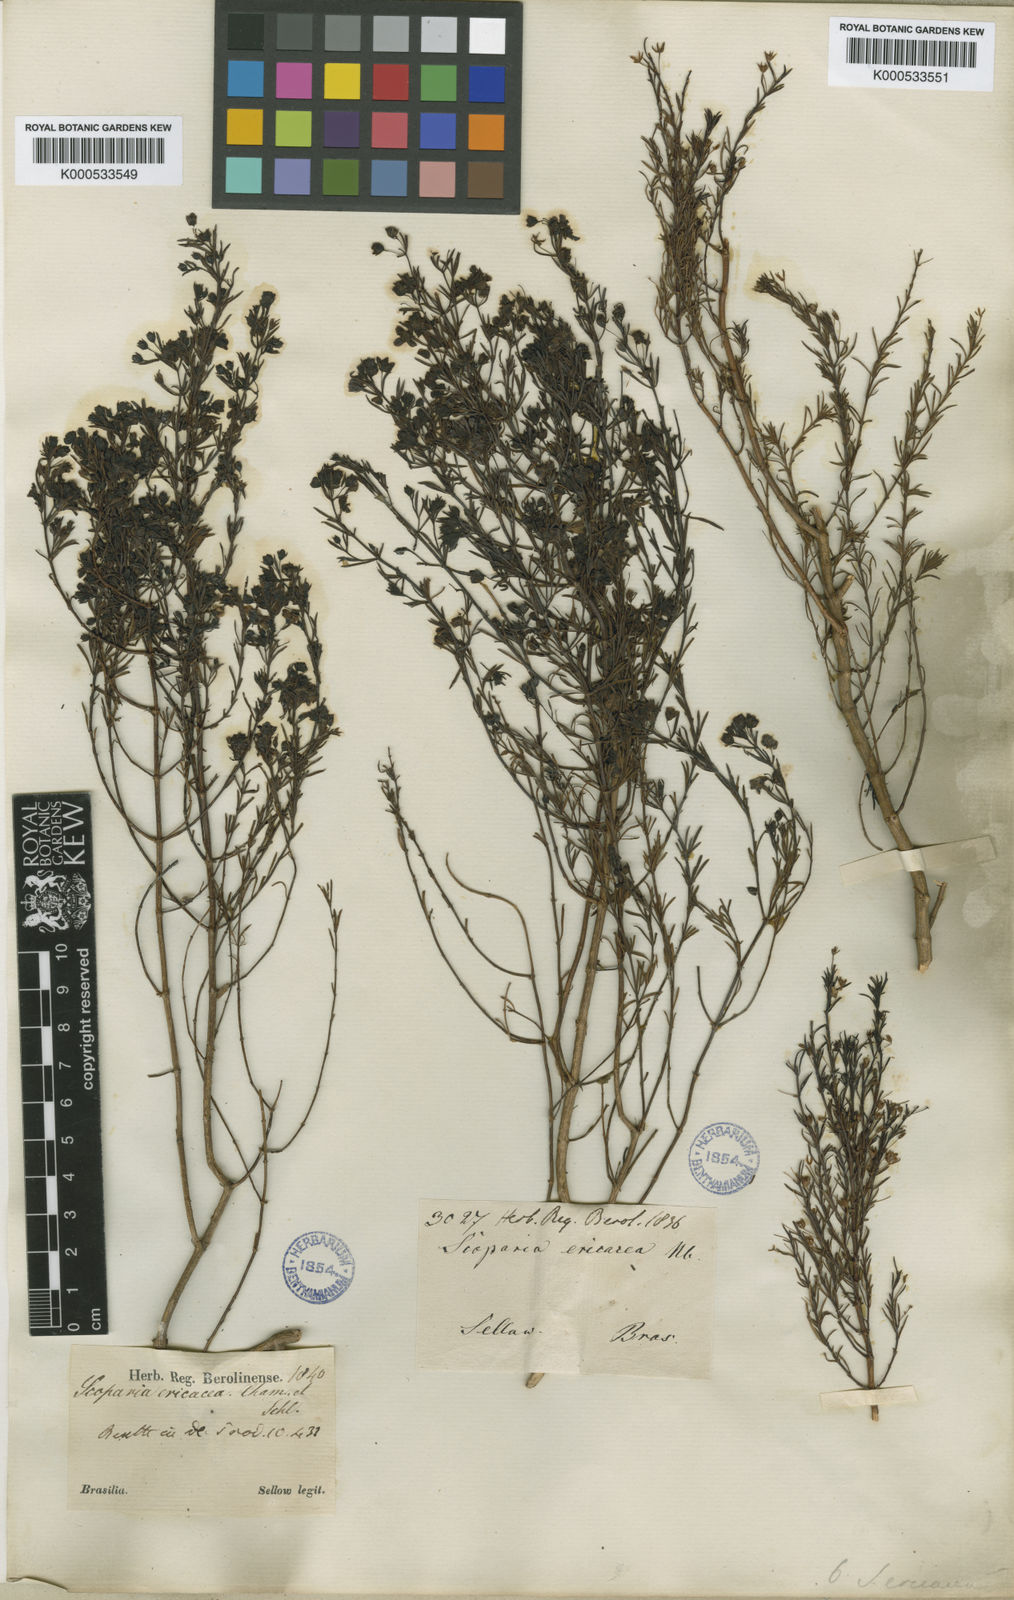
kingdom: Plantae
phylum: Tracheophyta
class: Magnoliopsida
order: Lamiales
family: Plantaginaceae
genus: Scoparia
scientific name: Scoparia ericacea
